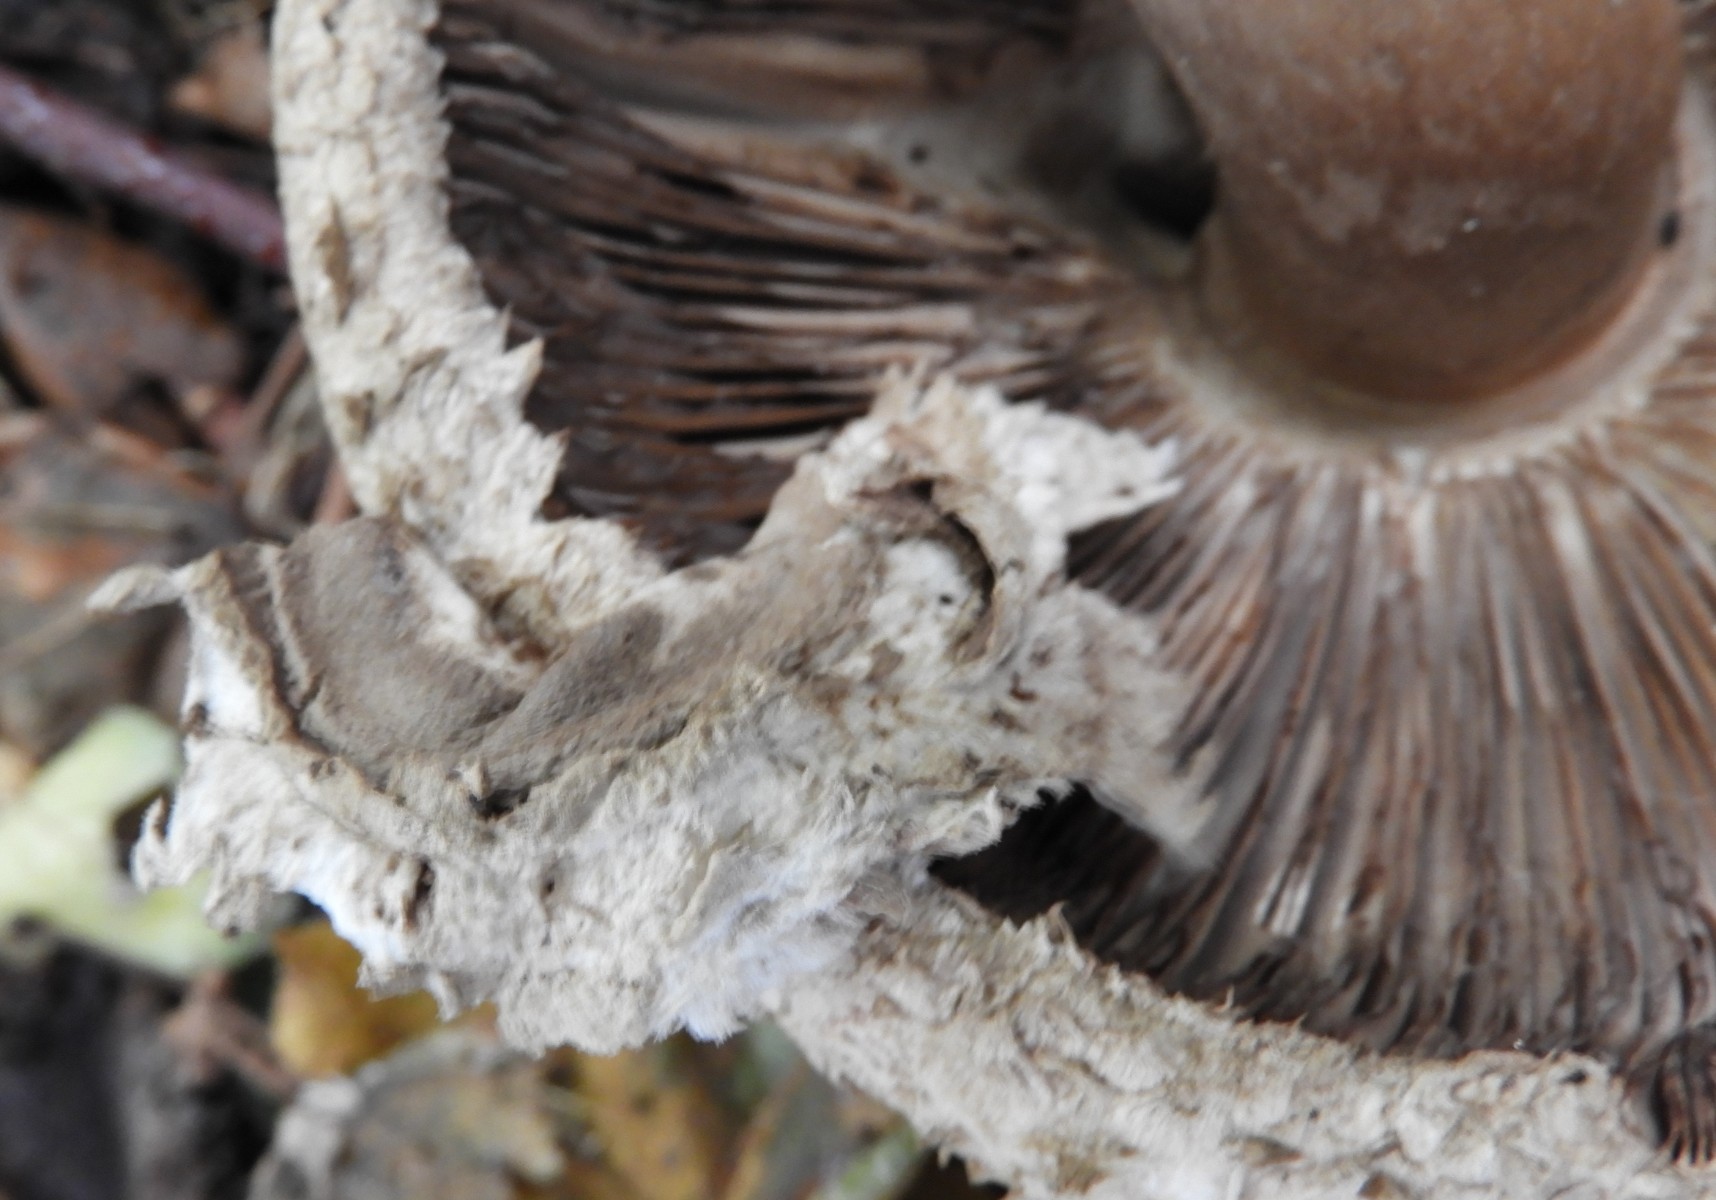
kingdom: Fungi
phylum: Basidiomycota
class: Agaricomycetes
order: Agaricales
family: Agaricaceae
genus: Chlorophyllum
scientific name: Chlorophyllum olivieri
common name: almindelig rabarberhat
